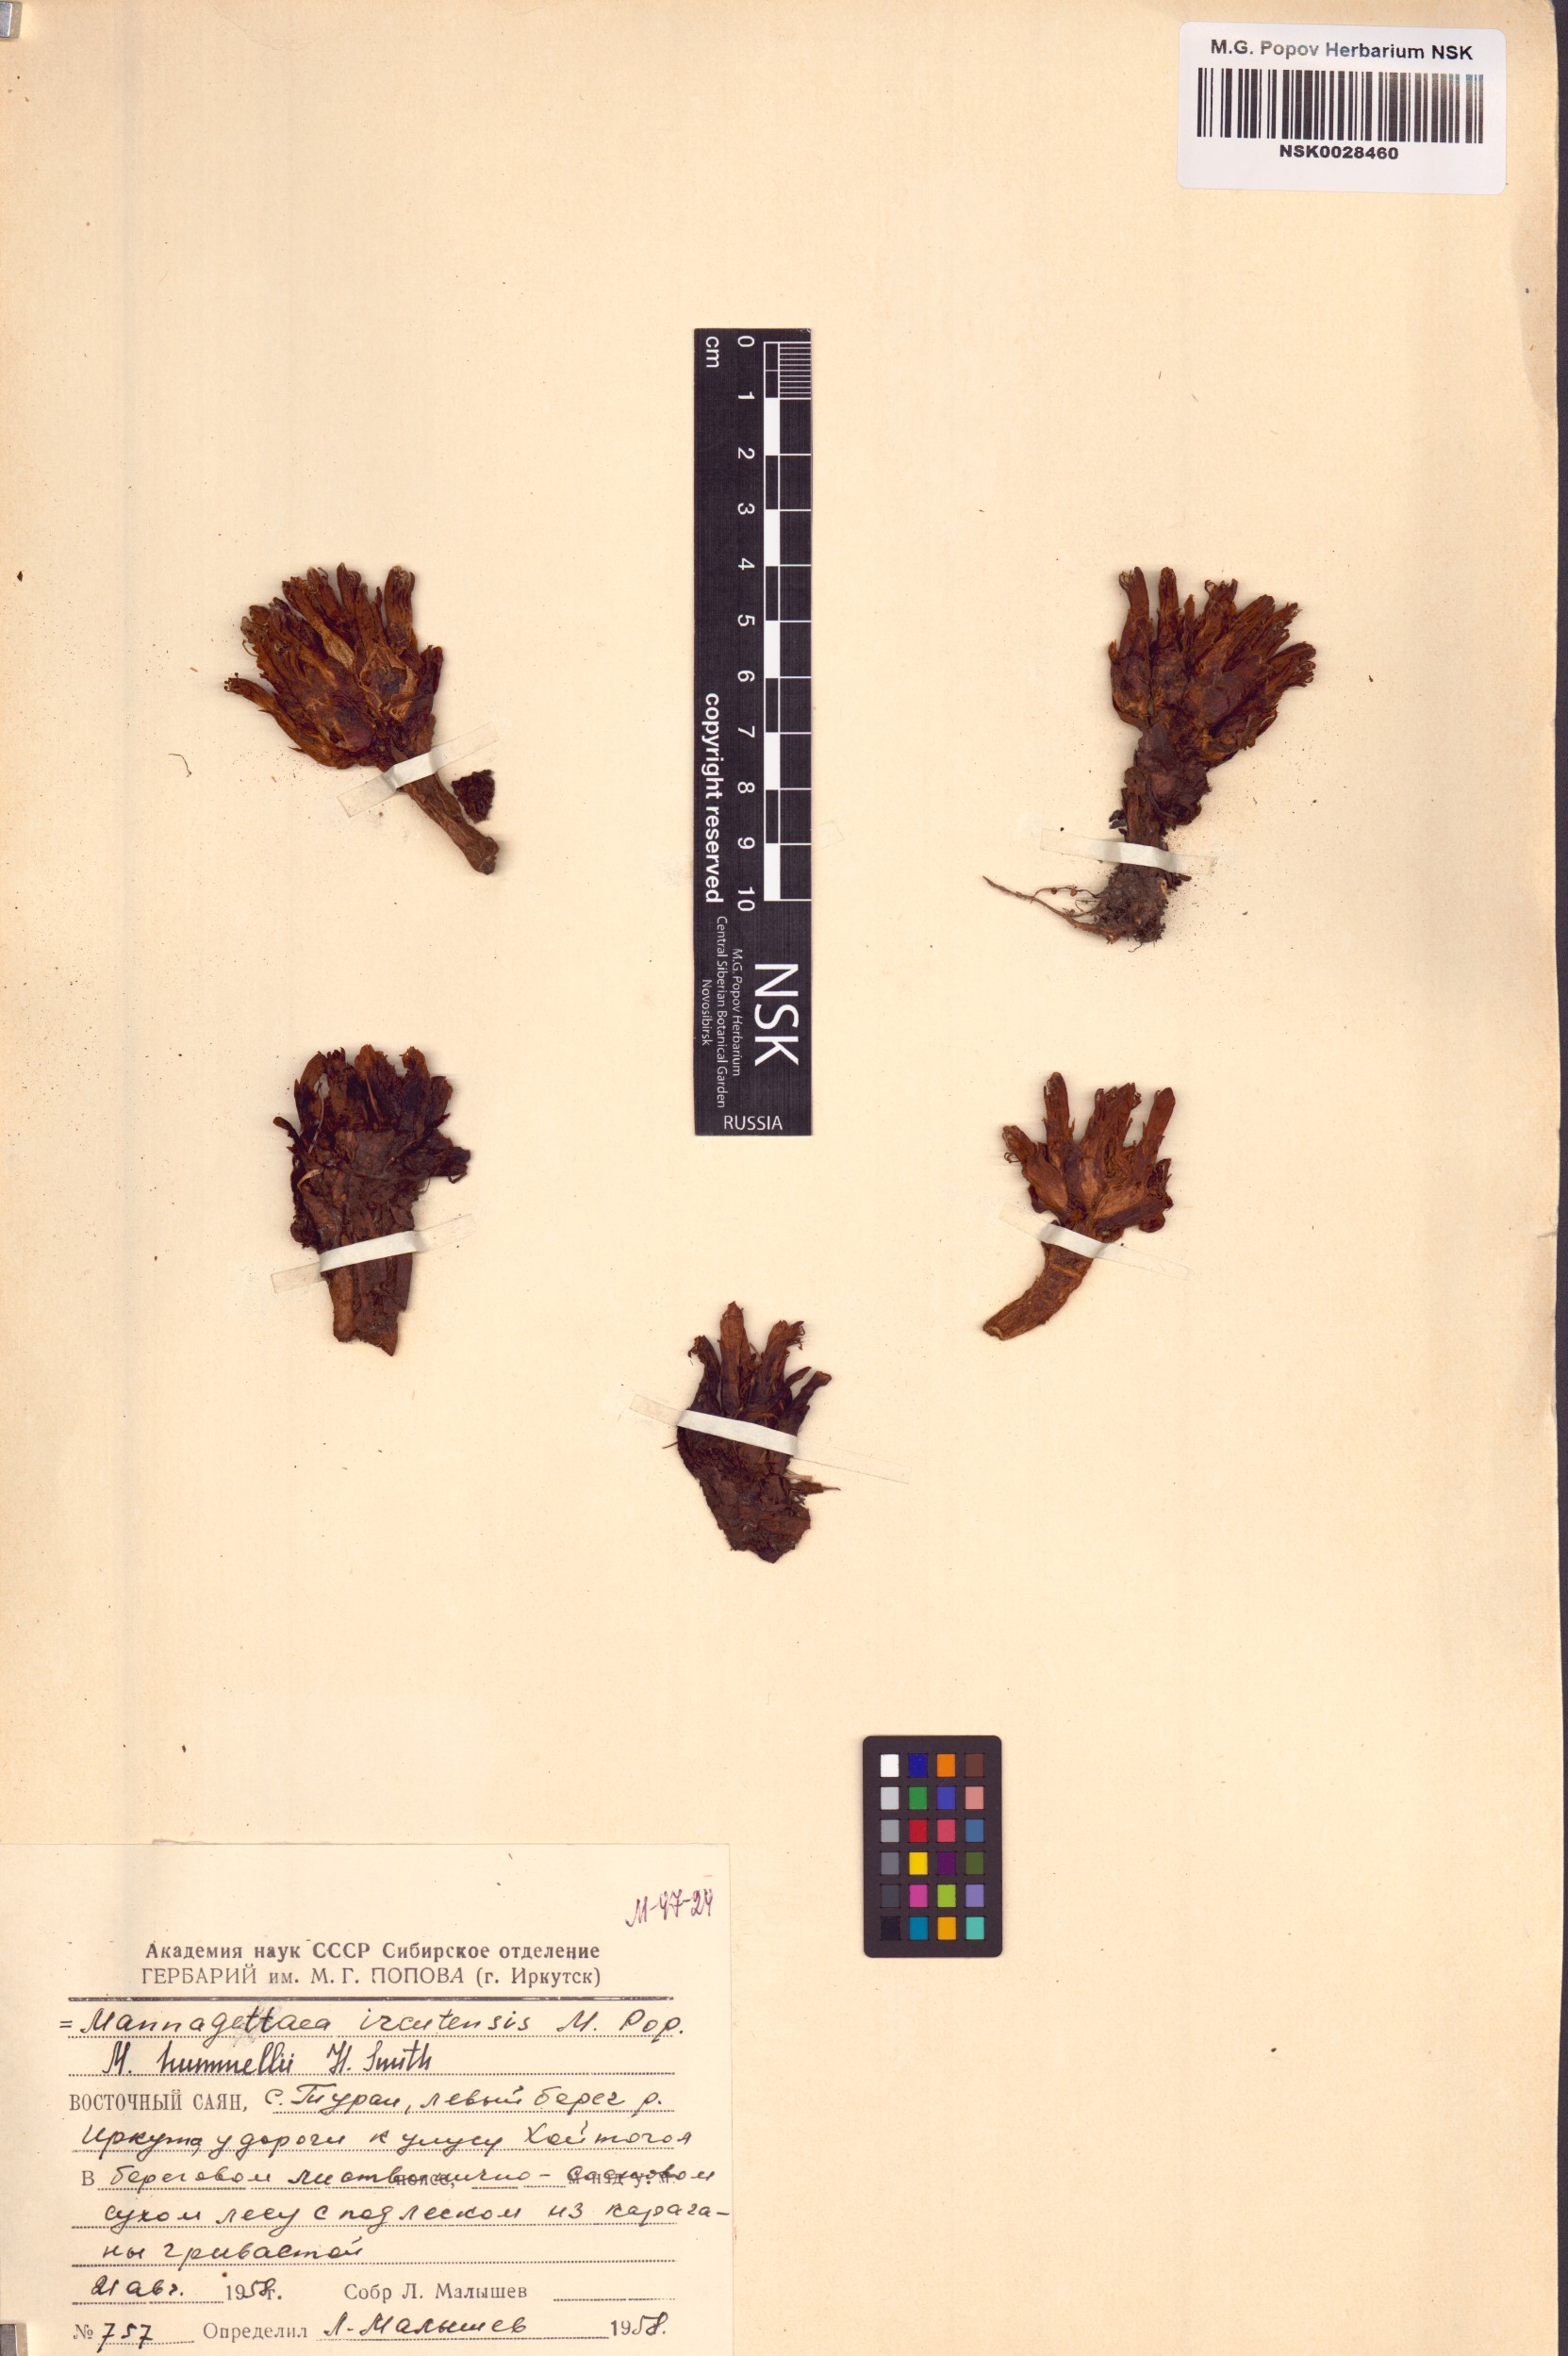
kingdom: Plantae
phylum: Tracheophyta
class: Magnoliopsida
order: Lamiales
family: Orobanchaceae
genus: Mannagettaea
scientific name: Mannagettaea hummelii
